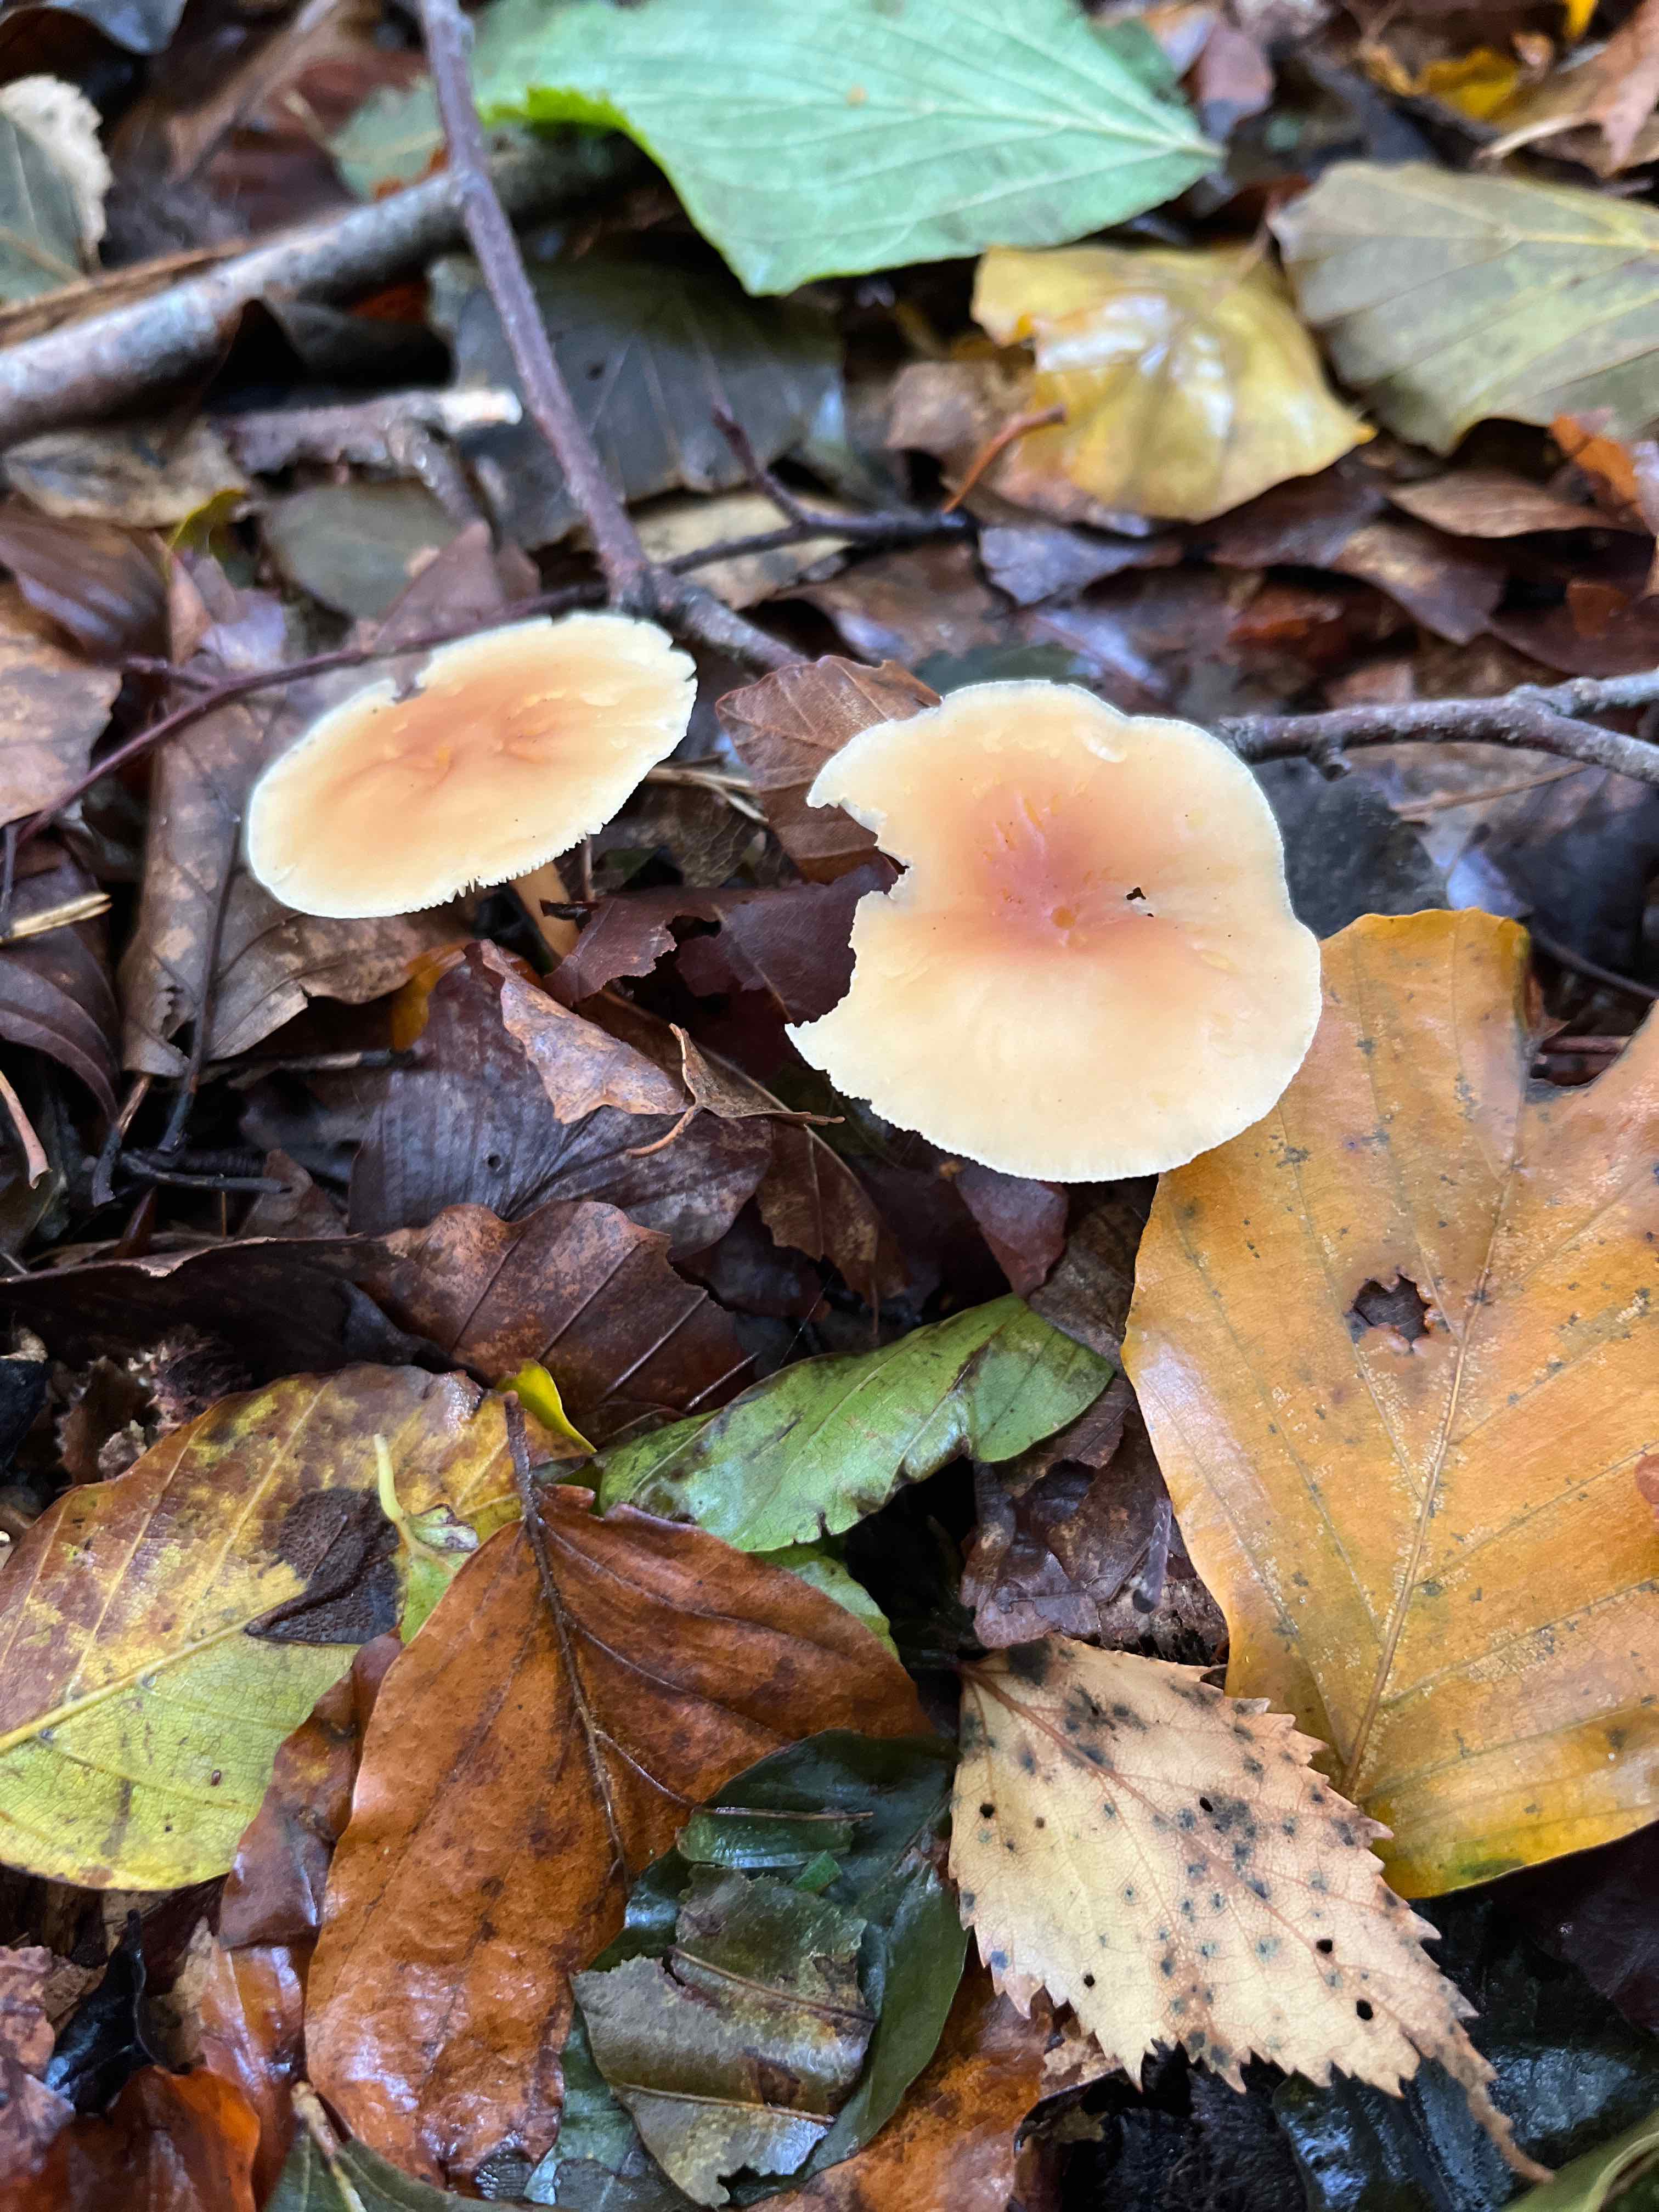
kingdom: Fungi
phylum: Basidiomycota
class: Agaricomycetes
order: Agaricales
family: Omphalotaceae
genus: Gymnopus
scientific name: Gymnopus dryophilus
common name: løv-fladhat
